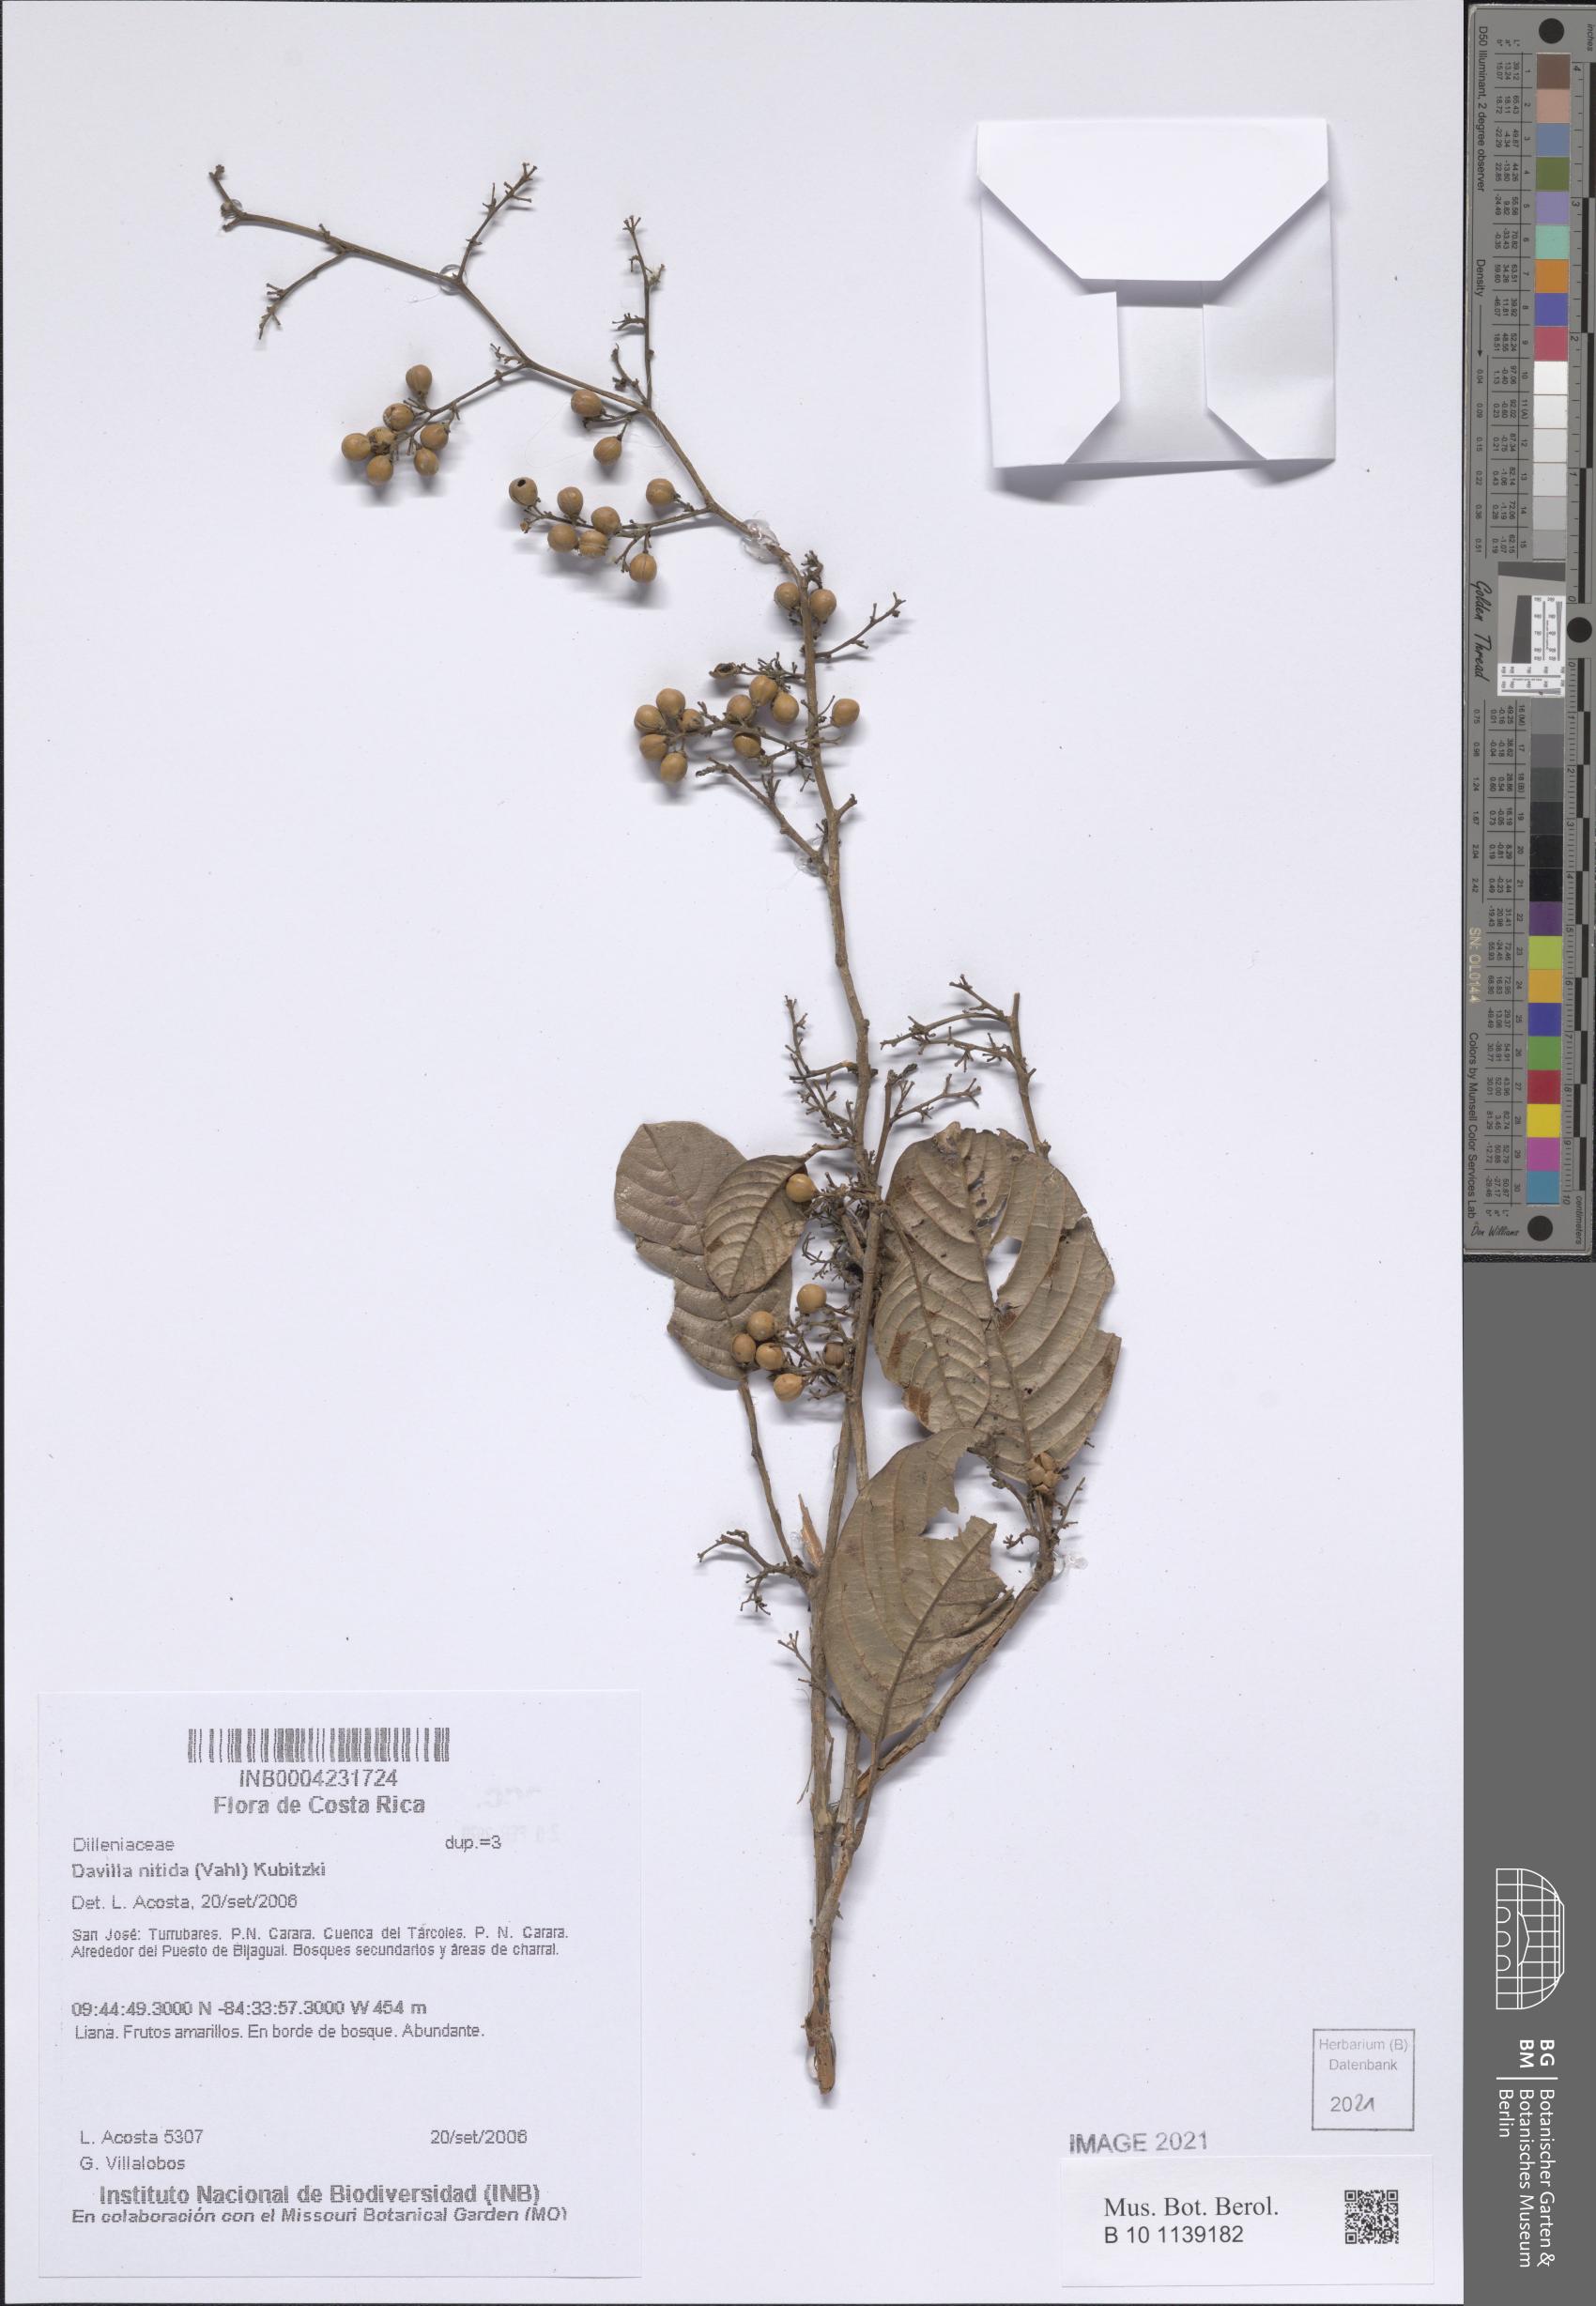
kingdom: Plantae
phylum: Tracheophyta
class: Magnoliopsida
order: Dilleniales
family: Dilleniaceae
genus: Davilla
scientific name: Davilla nitida
